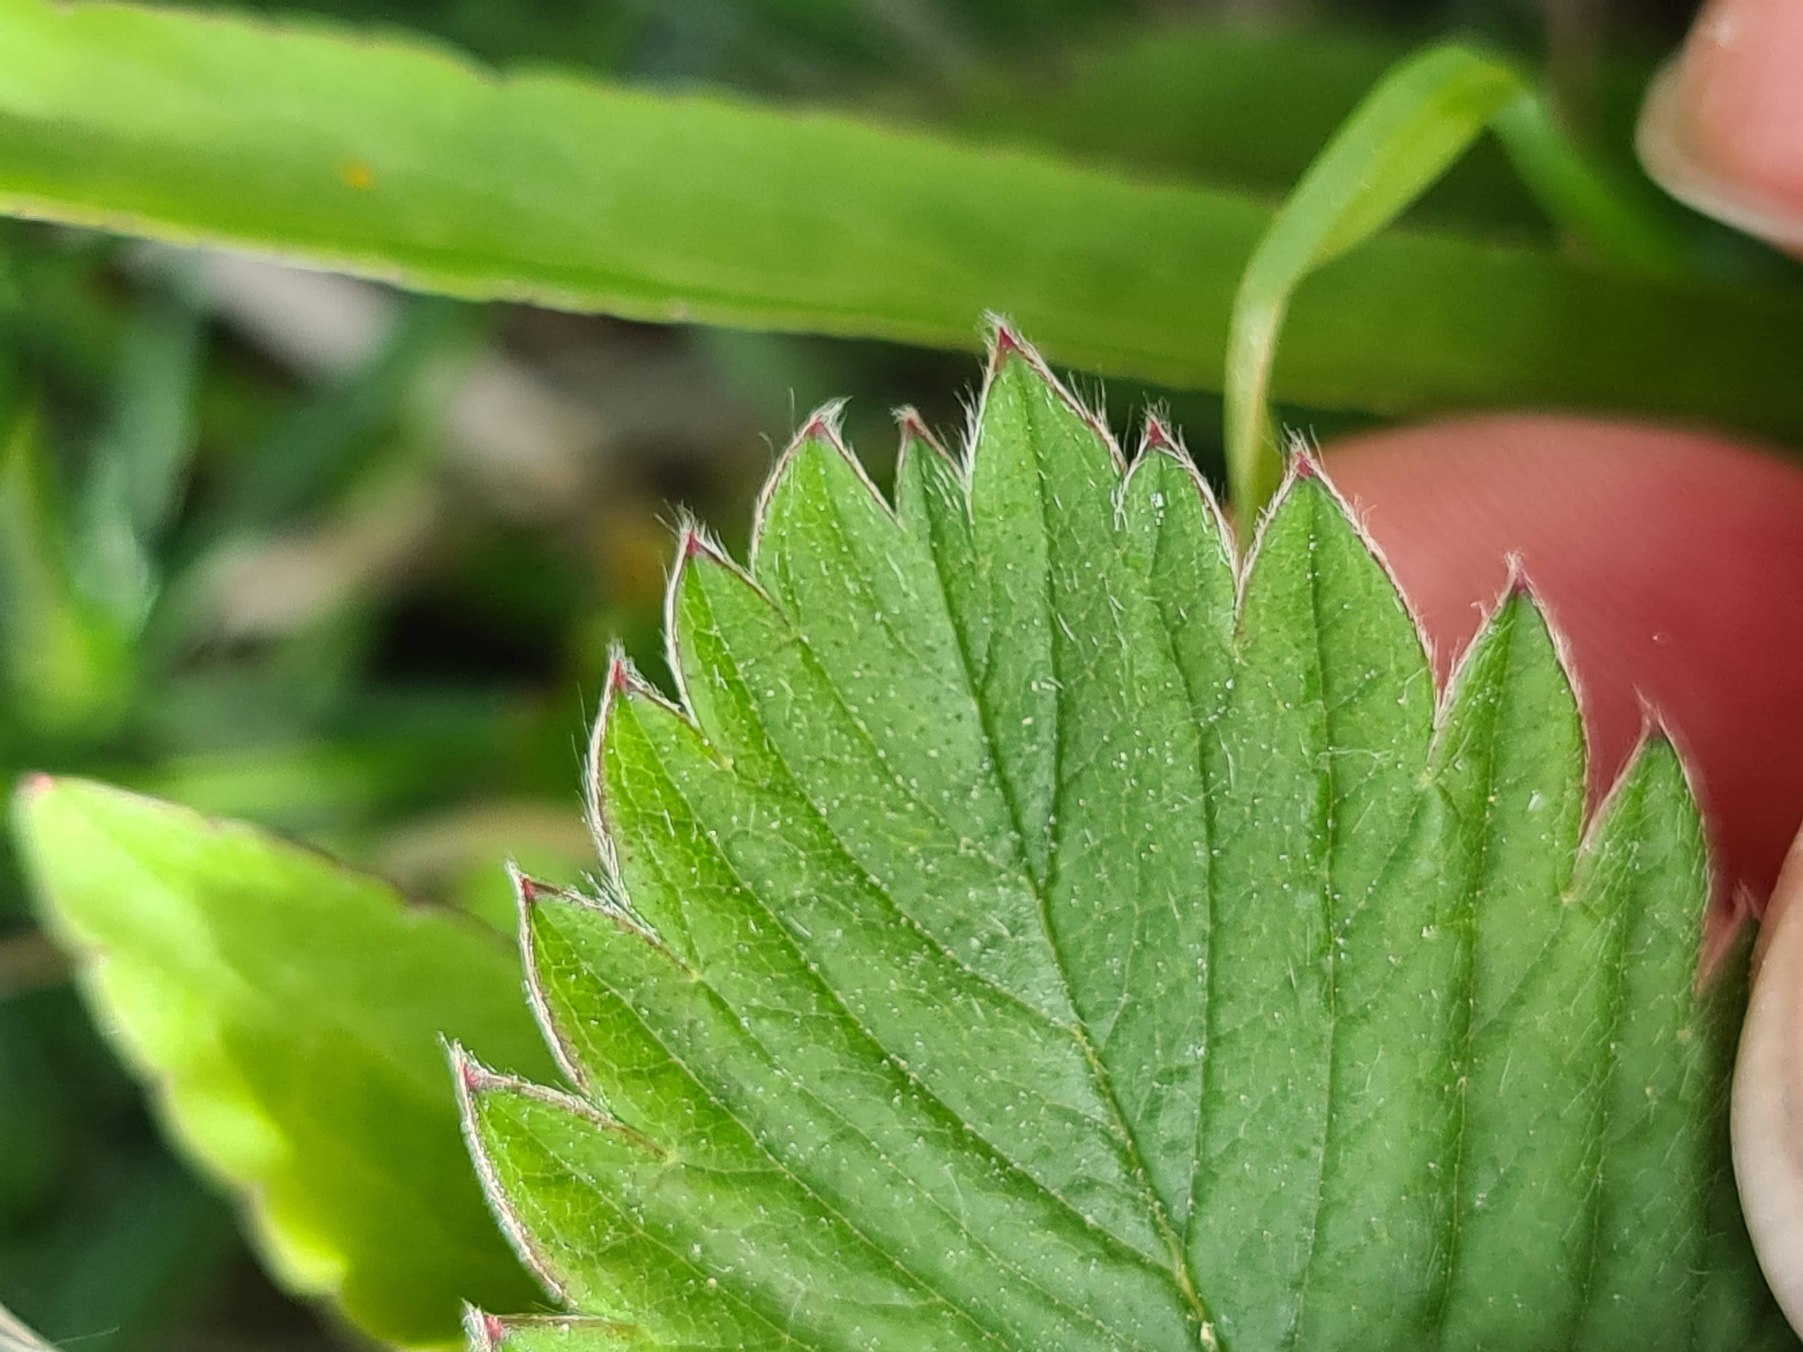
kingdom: Plantae
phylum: Tracheophyta
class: Magnoliopsida
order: Rosales
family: Rosaceae
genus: Fragaria
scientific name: Fragaria viridis
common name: Bakke-jordbær
